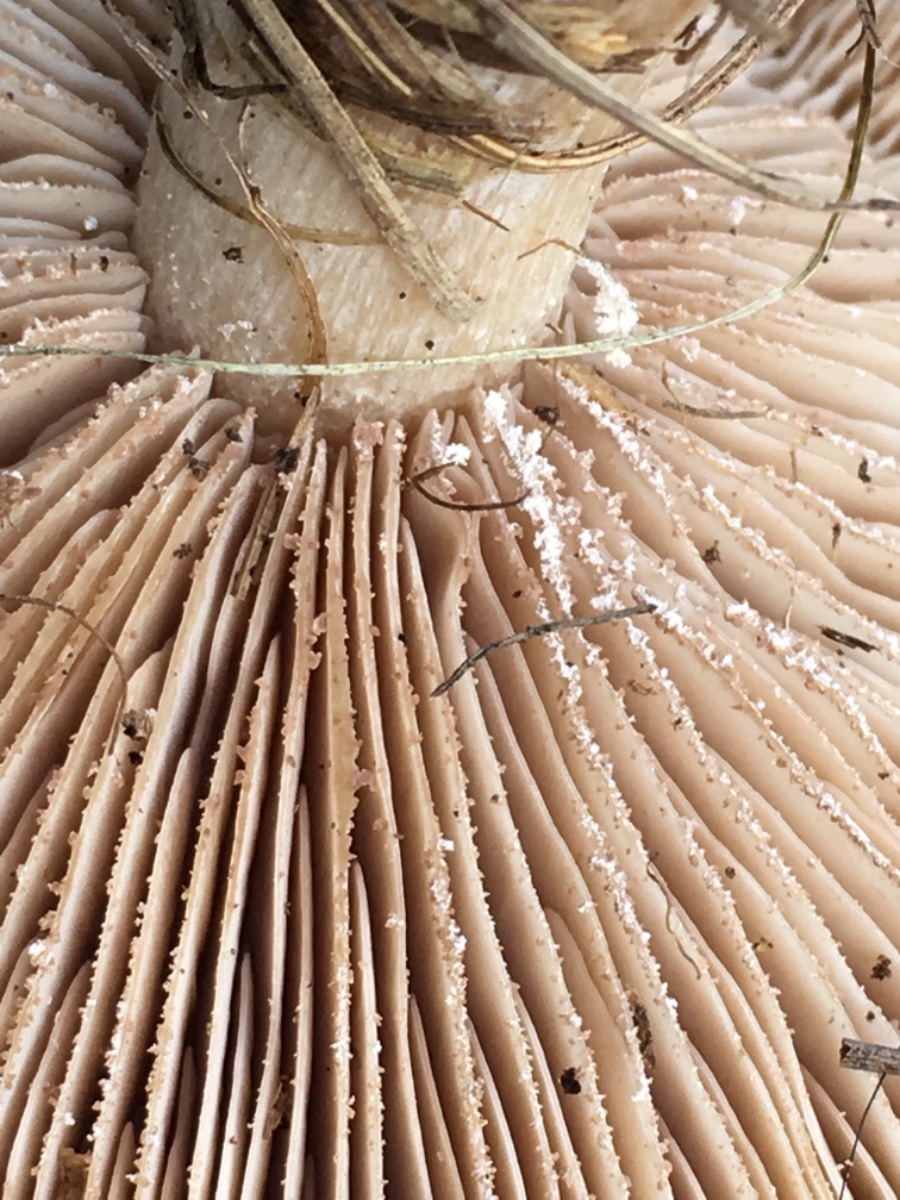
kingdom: Fungi
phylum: Basidiomycota
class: Agaricomycetes
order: Agaricales
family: Tricholomataceae
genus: Lepista
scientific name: Lepista panaeolus
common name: marmoreret hekseringshat
